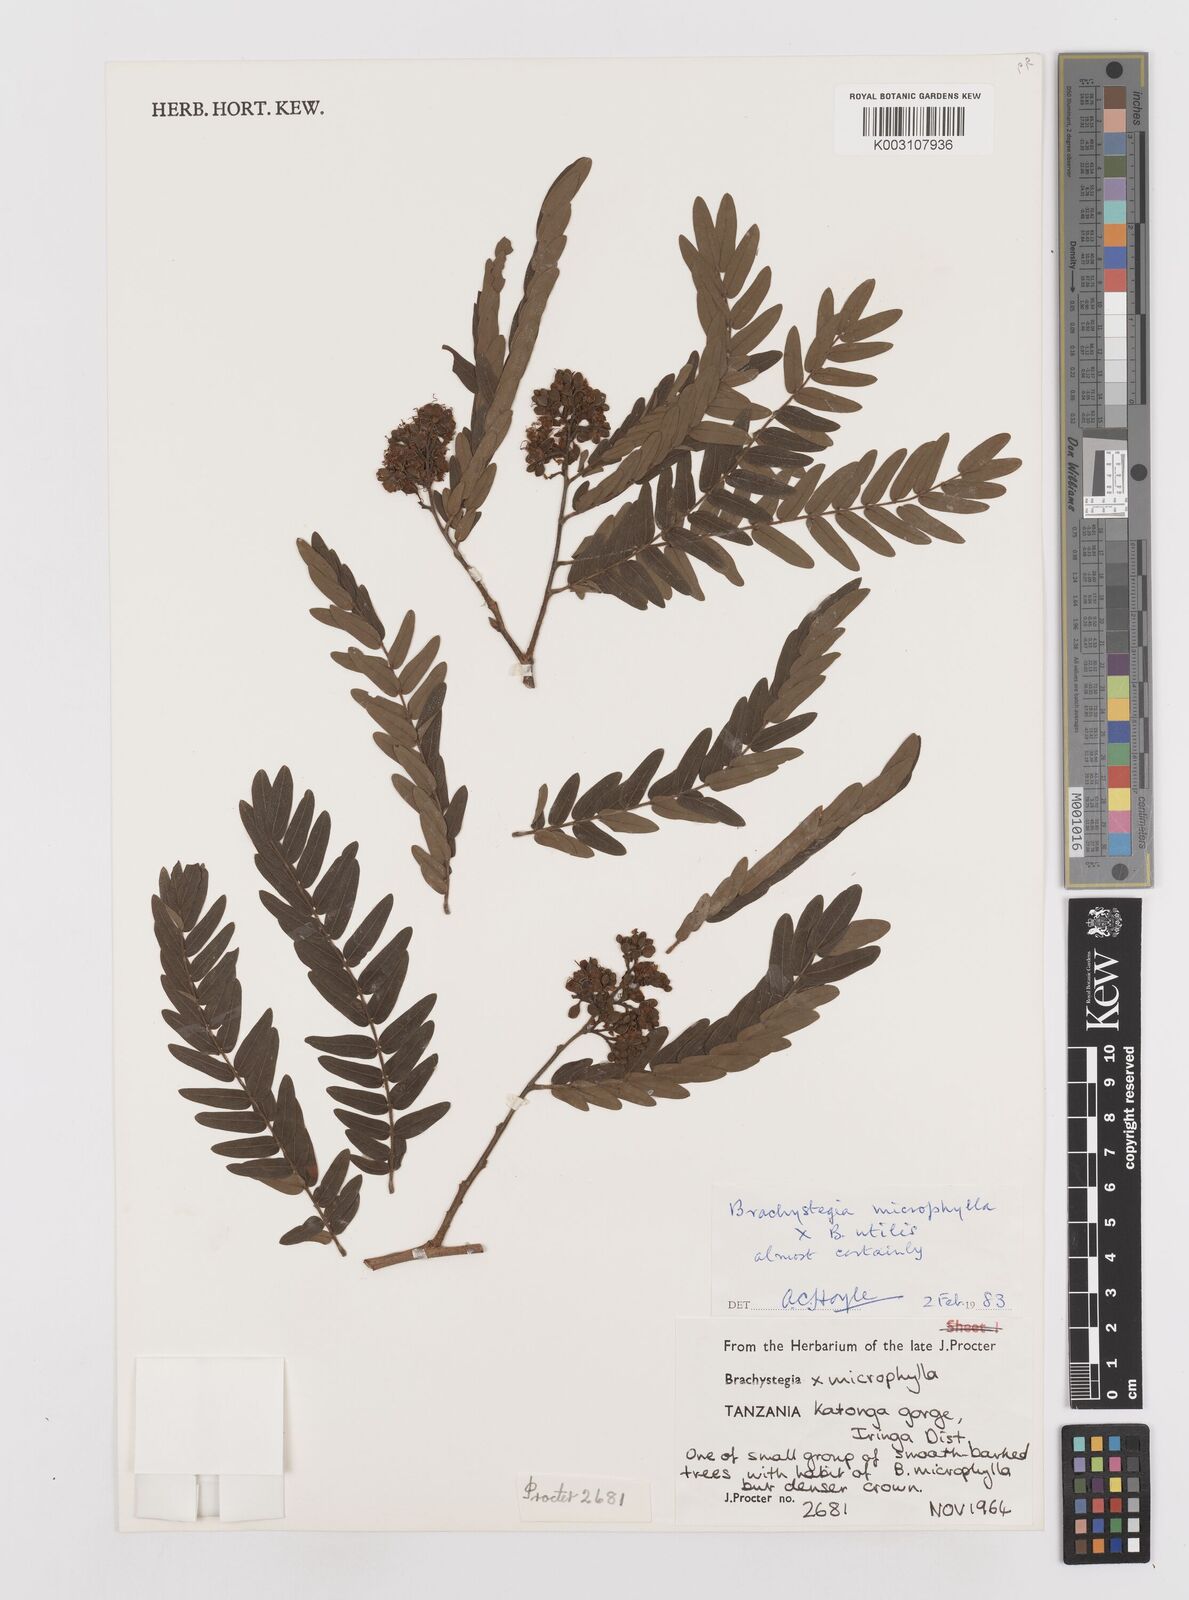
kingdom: Plantae
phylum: Tracheophyta
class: Magnoliopsida
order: Fabales
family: Fabaceae
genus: Brachystegia
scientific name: Brachystegia tamarindoides
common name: Mountain acacia
